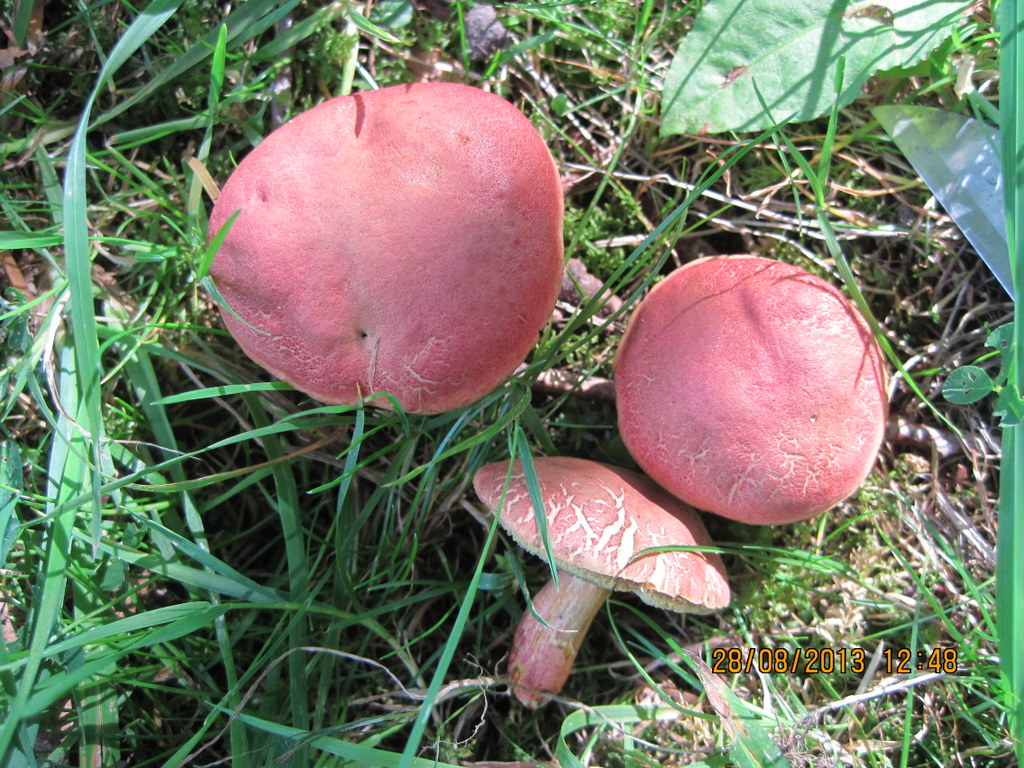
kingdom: Fungi
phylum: Basidiomycota
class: Agaricomycetes
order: Boletales
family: Boletaceae
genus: Hortiboletus
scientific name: Hortiboletus rubellus
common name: blodrød rørhat
